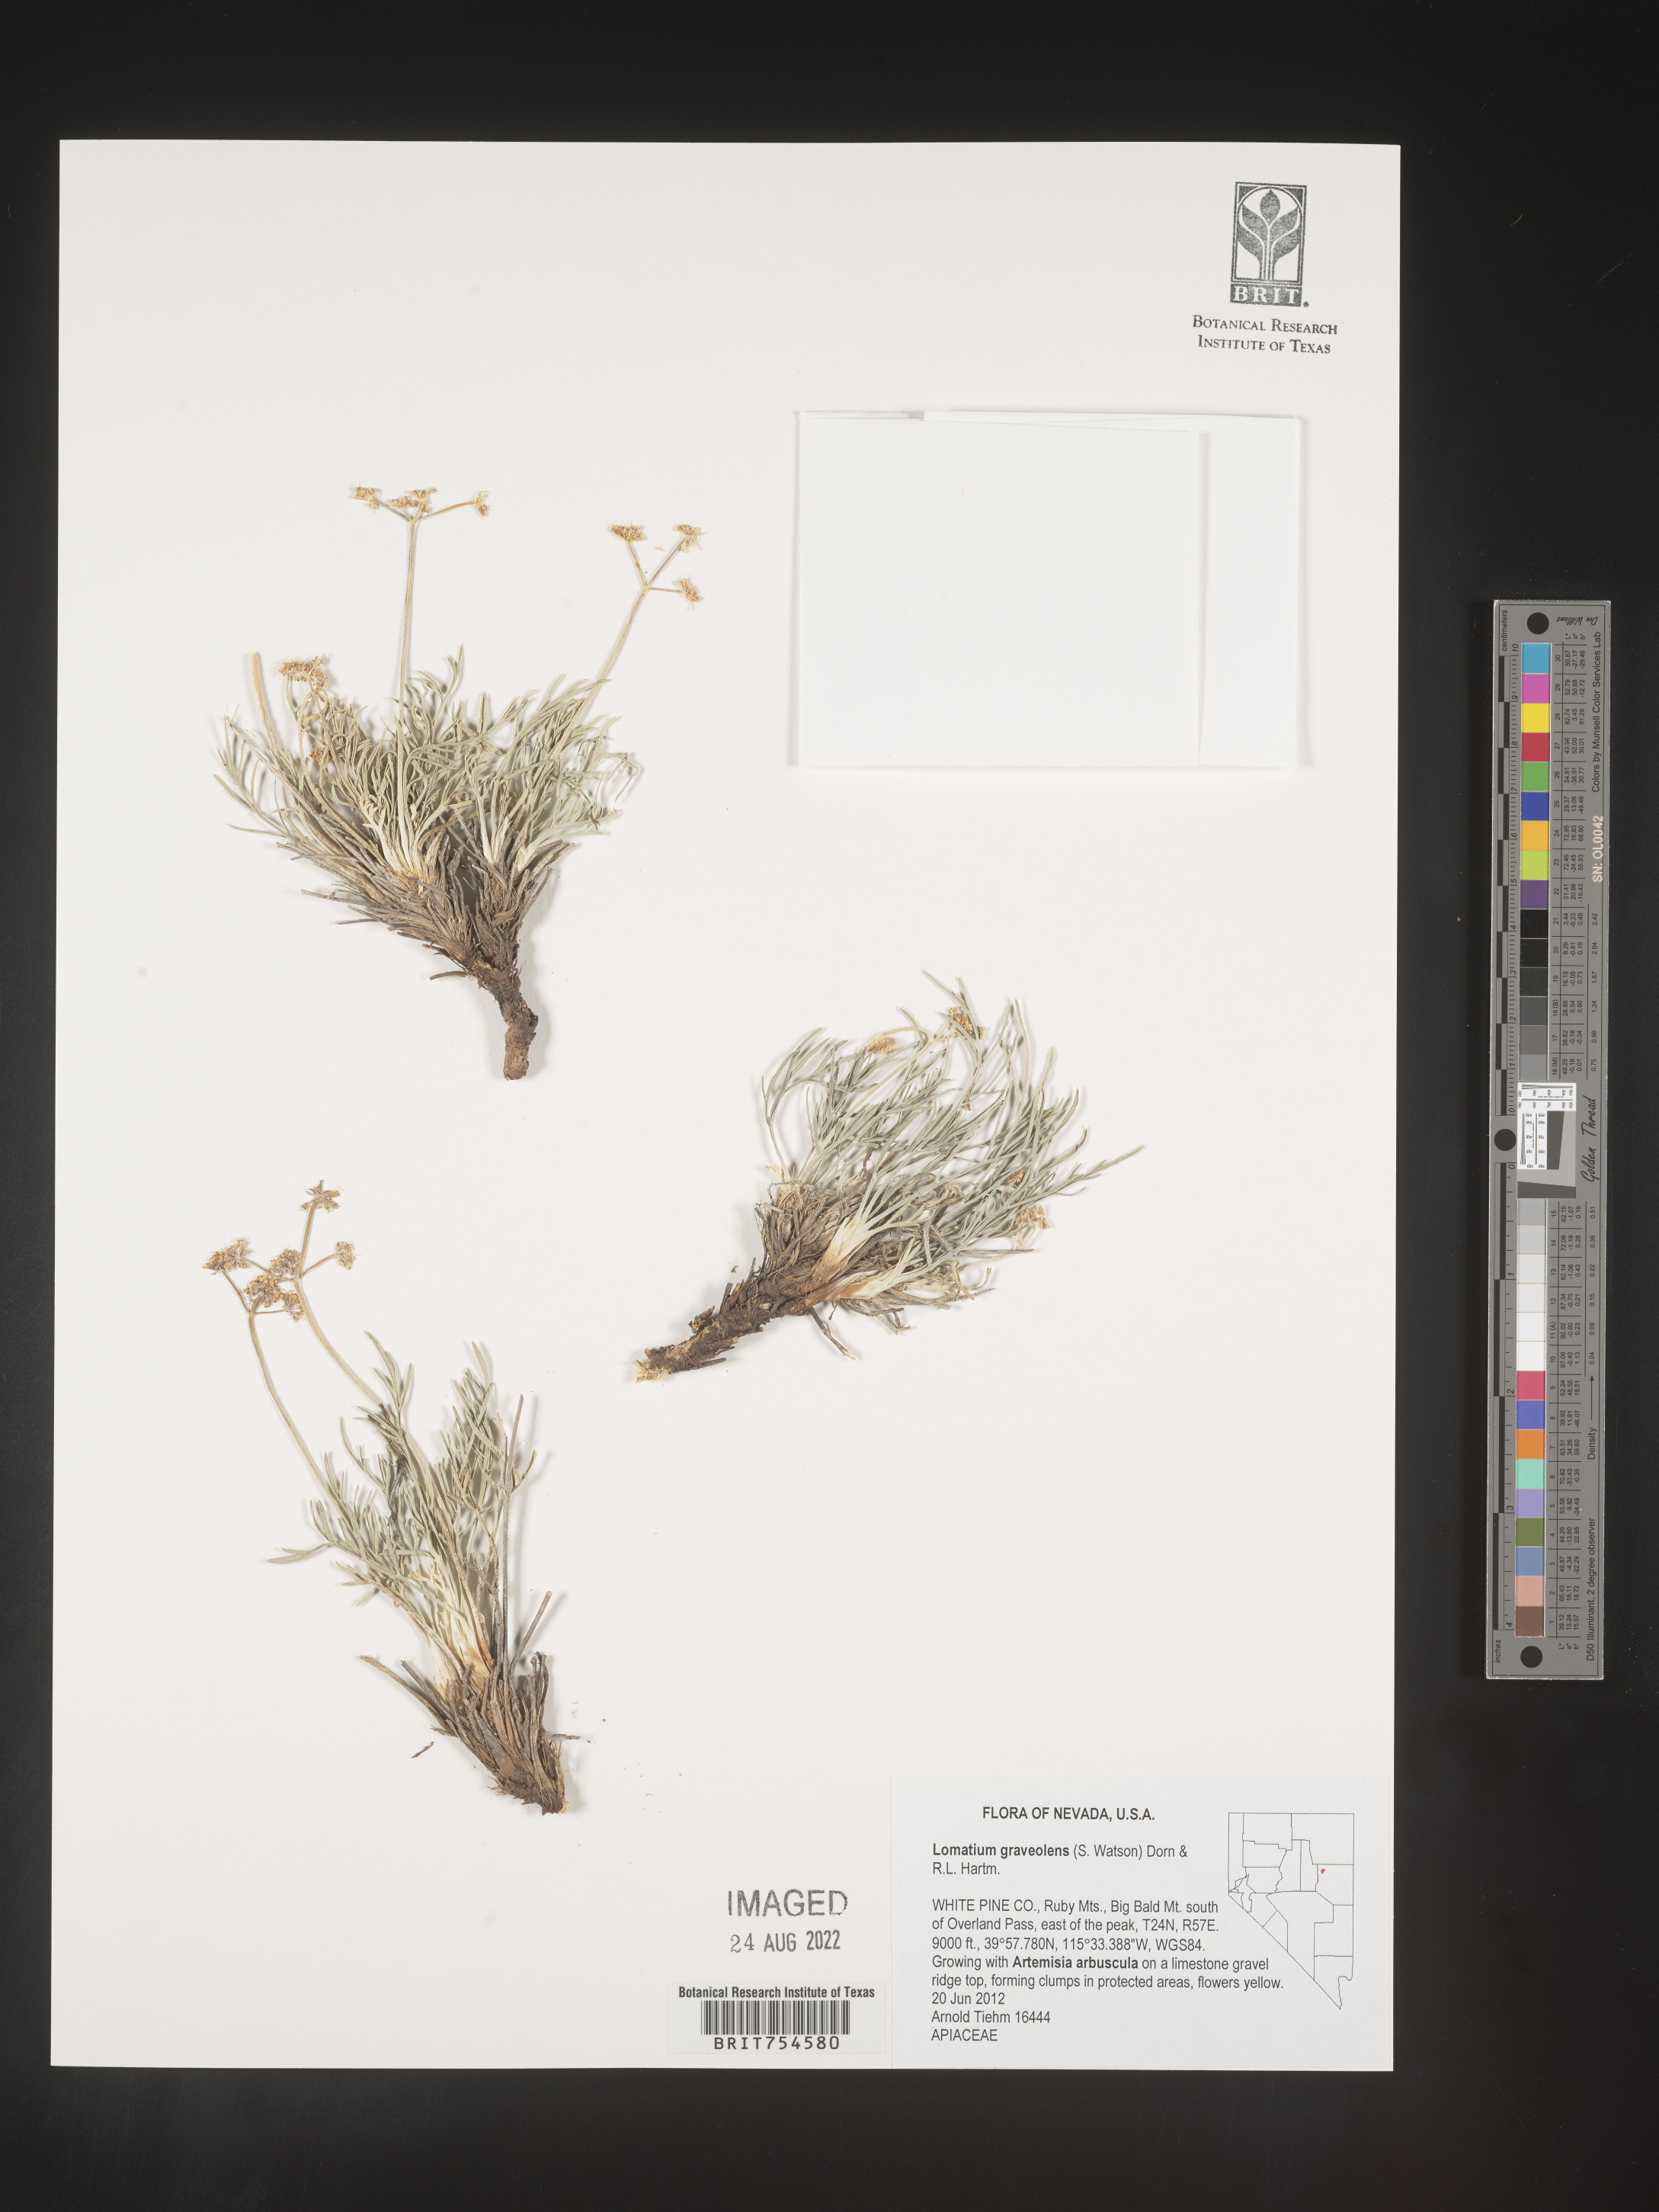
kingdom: Plantae
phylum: Tracheophyta
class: Magnoliopsida
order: Apiales
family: Apiaceae
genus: Lomatium
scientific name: Lomatium
